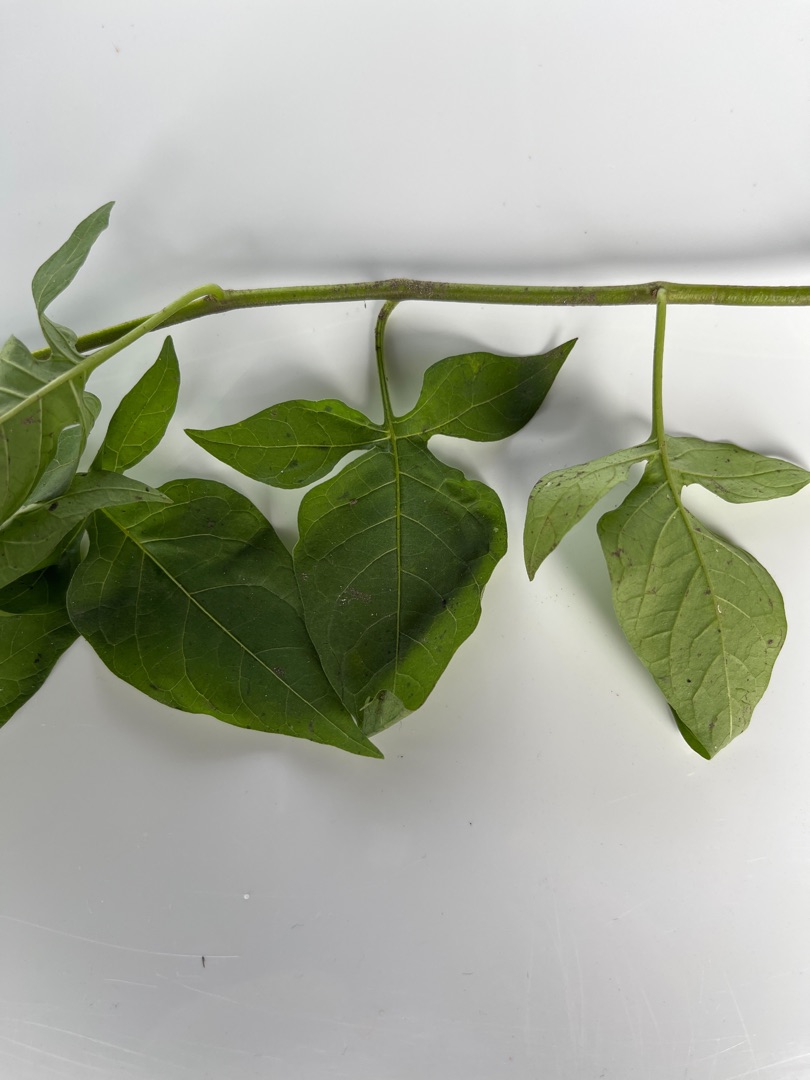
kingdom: Plantae
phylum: Tracheophyta
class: Magnoliopsida
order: Solanales
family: Solanaceae
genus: Solanum
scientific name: Solanum dulcamara
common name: Bittersød natskygge
